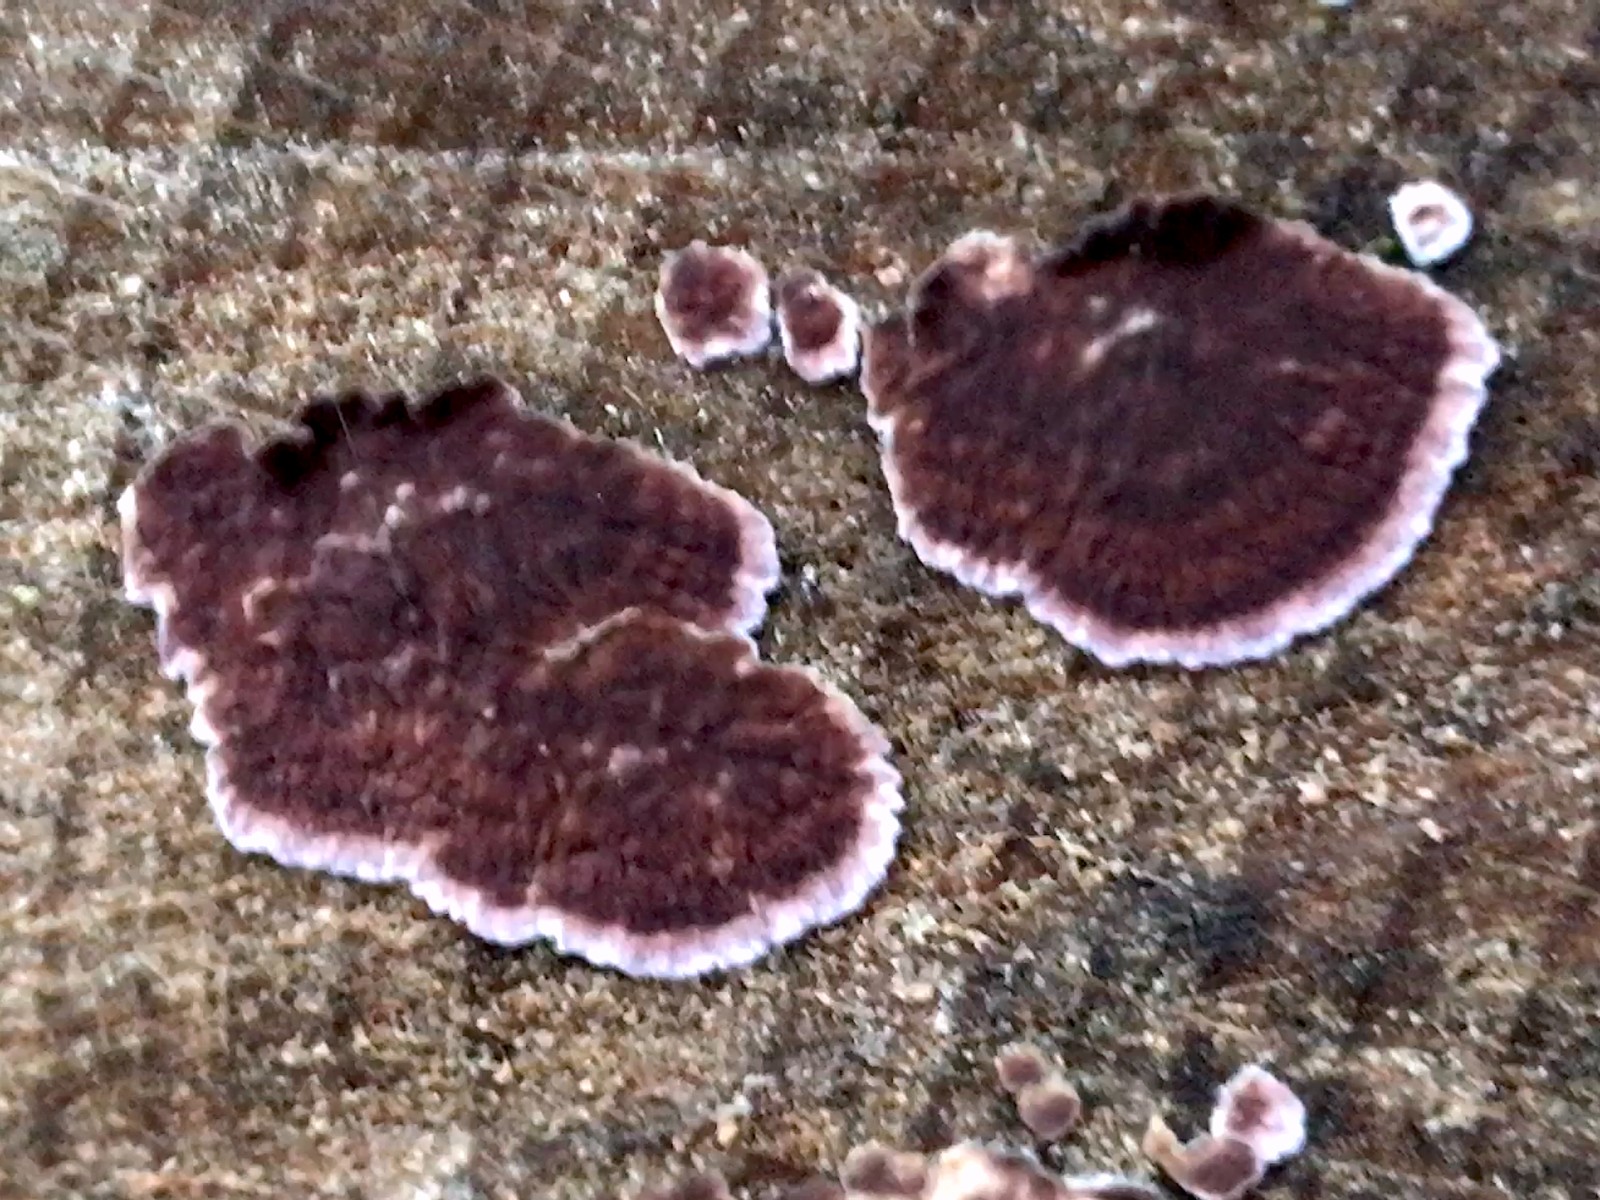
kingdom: Fungi
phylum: Basidiomycota
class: Agaricomycetes
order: Agaricales
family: Cyphellaceae
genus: Chondrostereum
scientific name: Chondrostereum purpureum
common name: purpurlædersvamp
